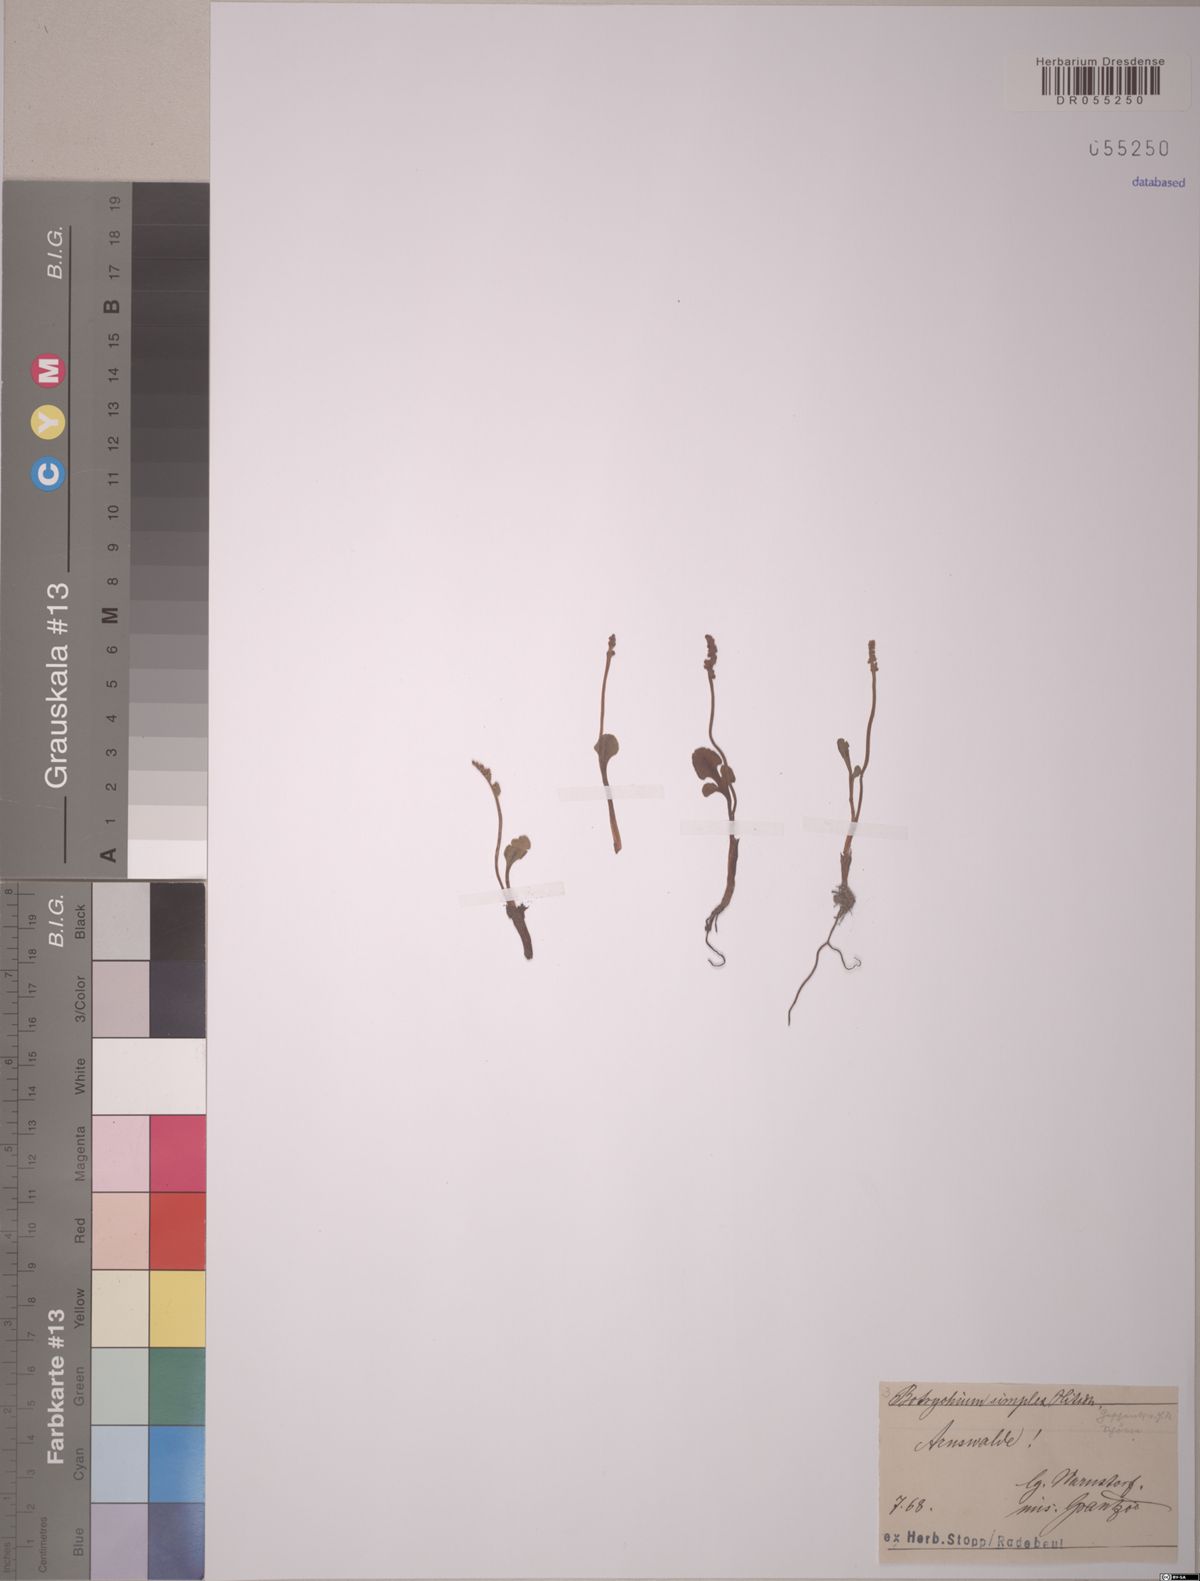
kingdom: Plantae
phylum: Tracheophyta
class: Polypodiopsida
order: Ophioglossales
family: Ophioglossaceae
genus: Botrychium
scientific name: Botrychium simplex
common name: Least moonwort
